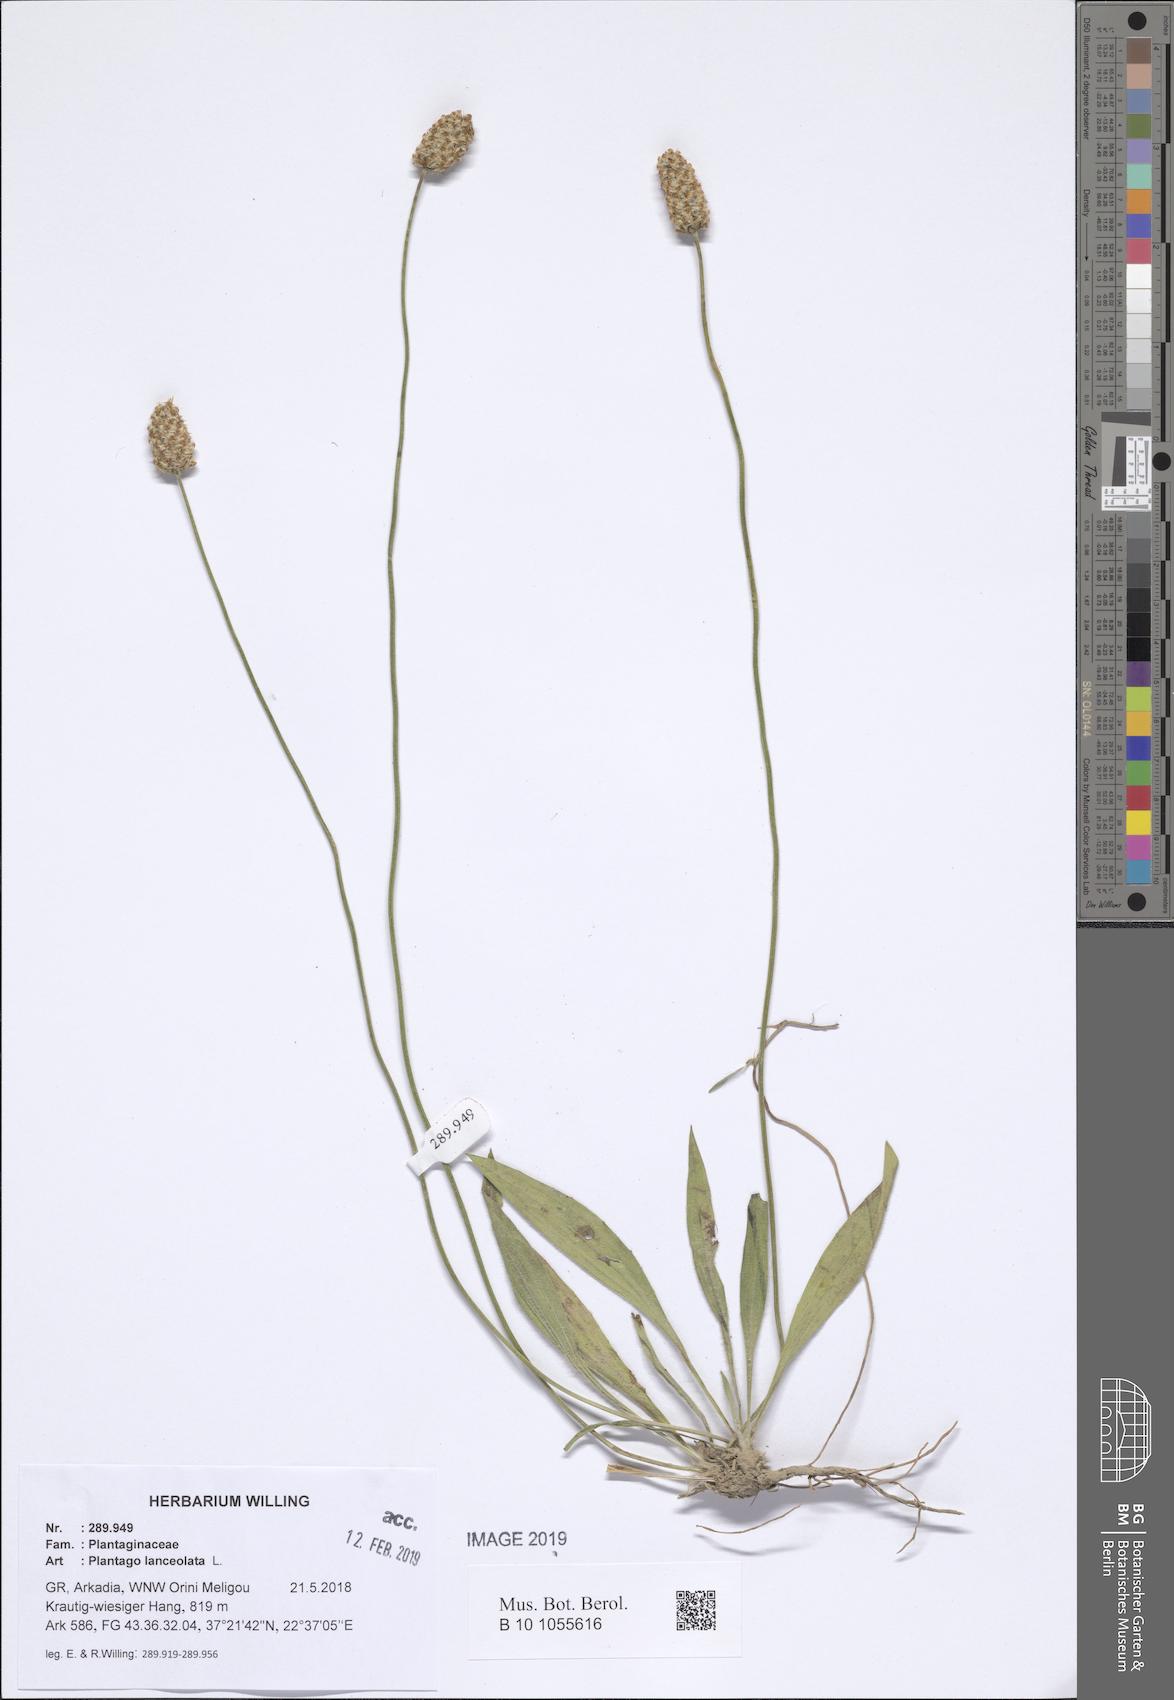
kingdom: Plantae
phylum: Tracheophyta
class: Magnoliopsida
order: Lamiales
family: Plantaginaceae
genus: Plantago
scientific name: Plantago lanceolata
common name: Ribwort plantain
